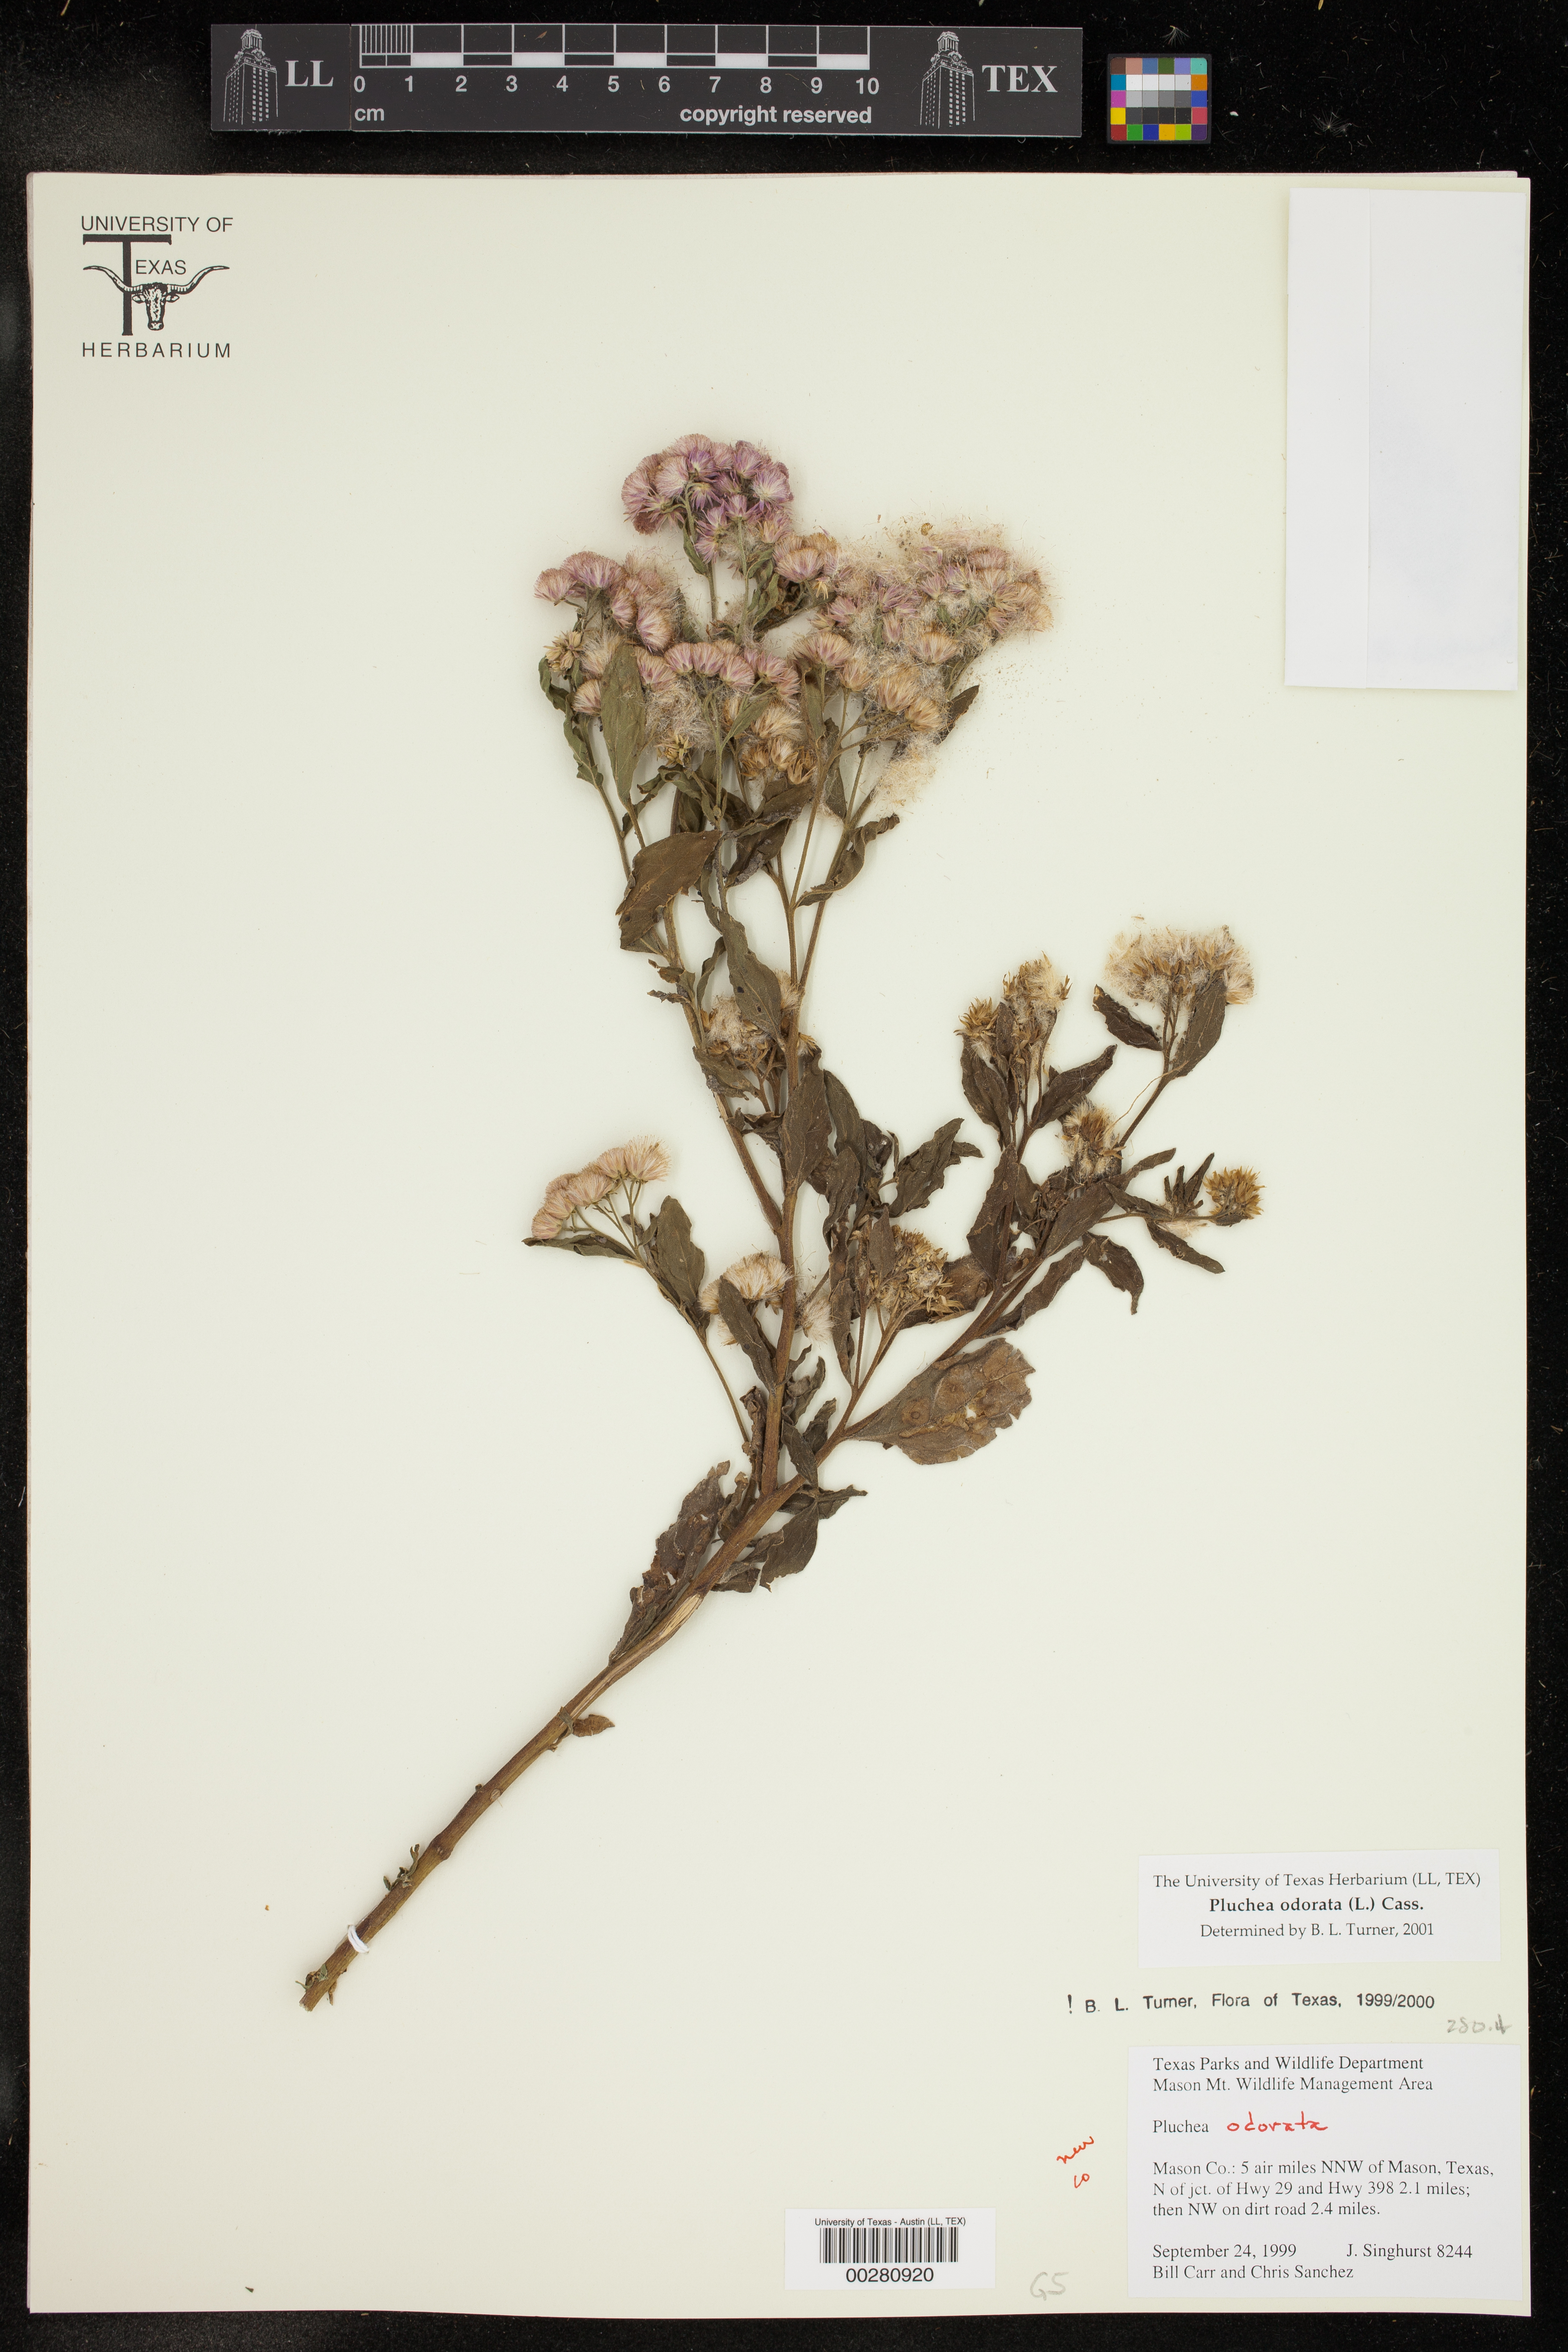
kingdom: Plantae
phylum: Tracheophyta
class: Magnoliopsida
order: Asterales
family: Asteraceae
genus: Pluchea
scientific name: Pluchea odorata
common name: Saltmarsh fleabane
